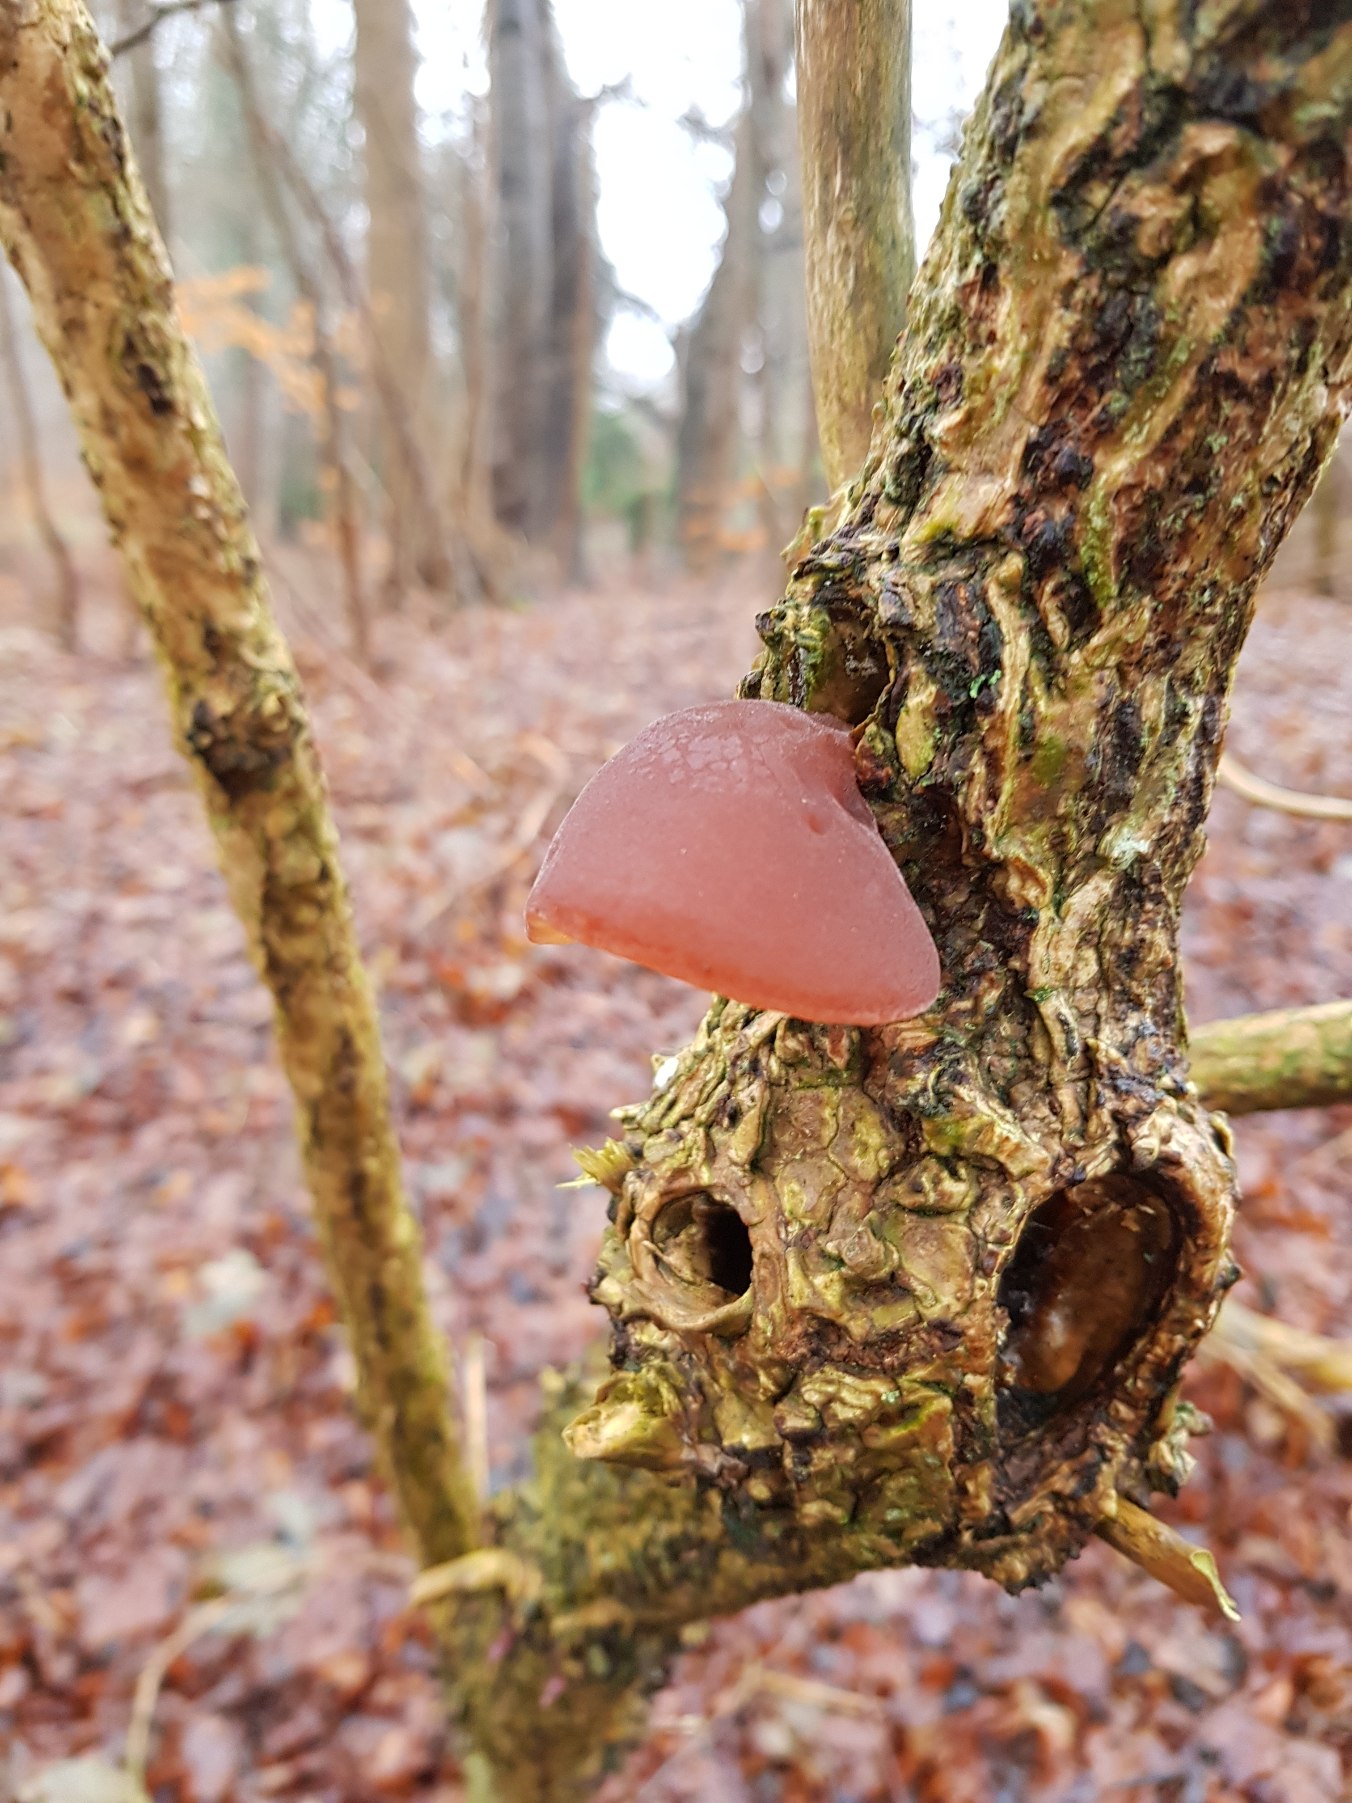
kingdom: Fungi
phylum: Basidiomycota
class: Agaricomycetes
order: Auriculariales
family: Auriculariaceae
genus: Auricularia
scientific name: Auricularia auricula-judae
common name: Almindelig judasøre
